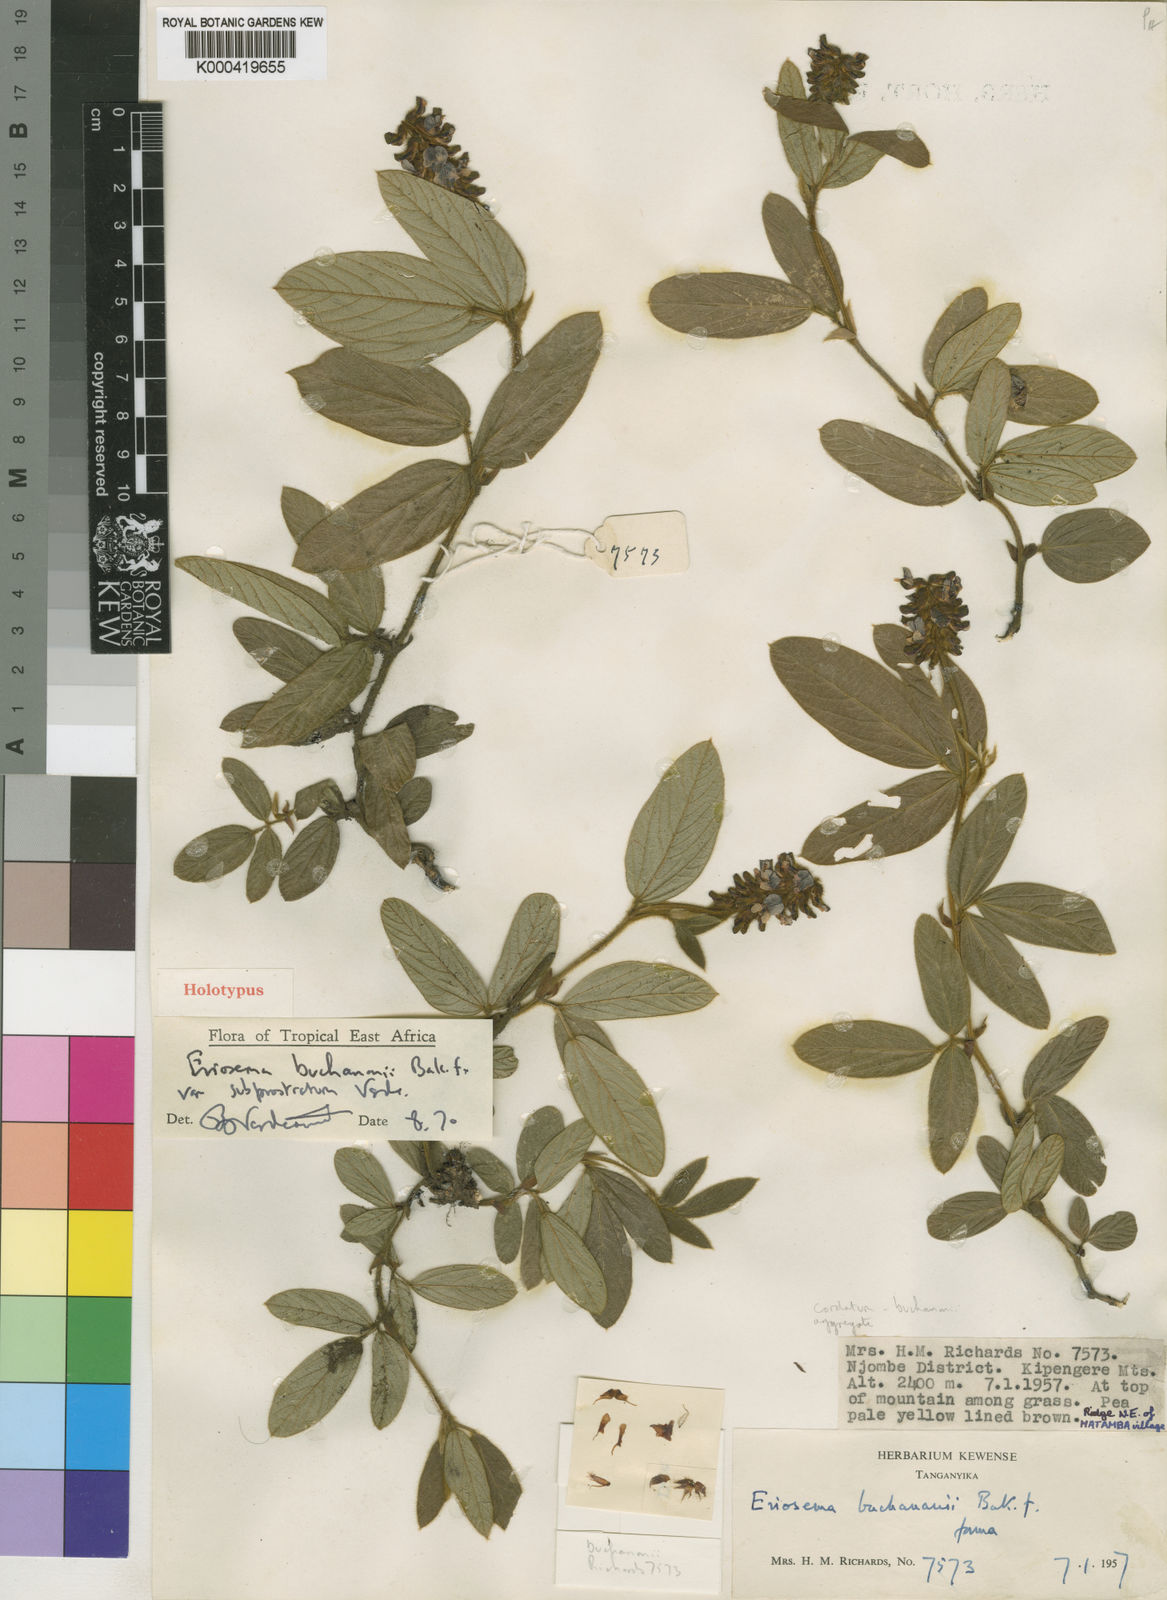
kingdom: Plantae
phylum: Tracheophyta
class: Magnoliopsida
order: Fabales
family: Fabaceae
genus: Eriosema
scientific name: Eriosema buchananii
